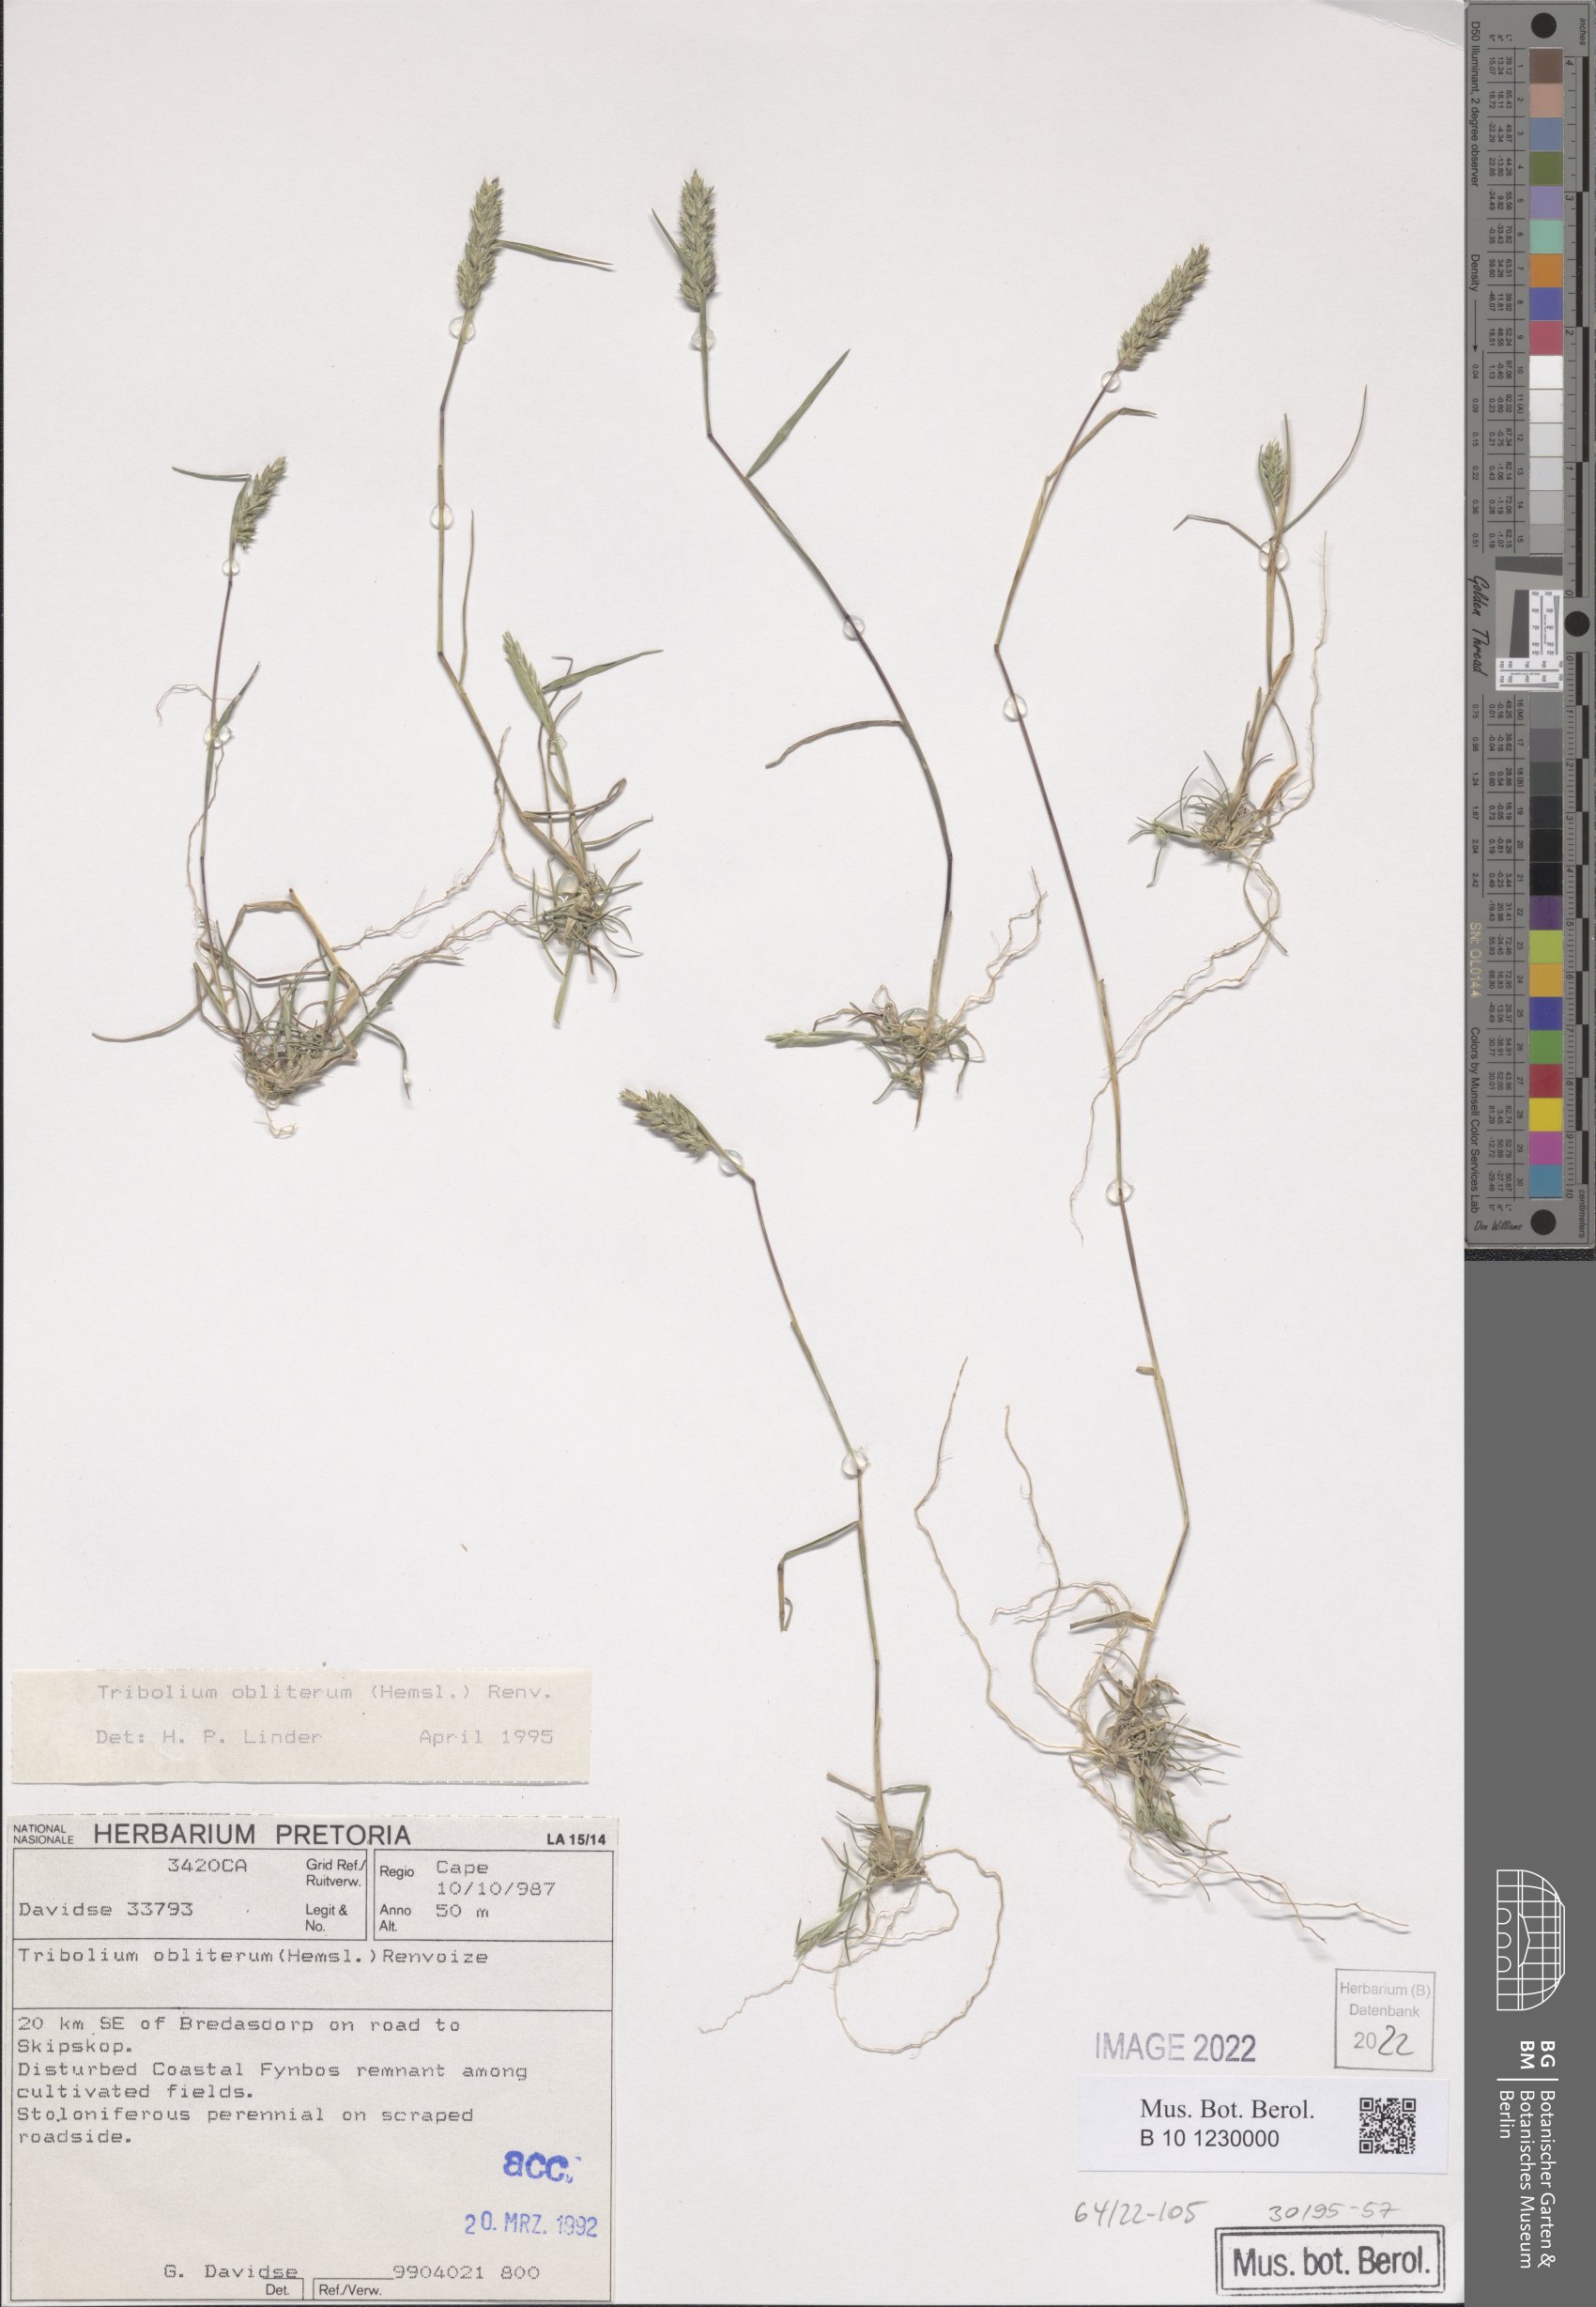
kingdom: Plantae
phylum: Tracheophyta
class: Liliopsida
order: Poales
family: Poaceae
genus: Tribolium
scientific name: Tribolium obliterum
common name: Capetown grass
